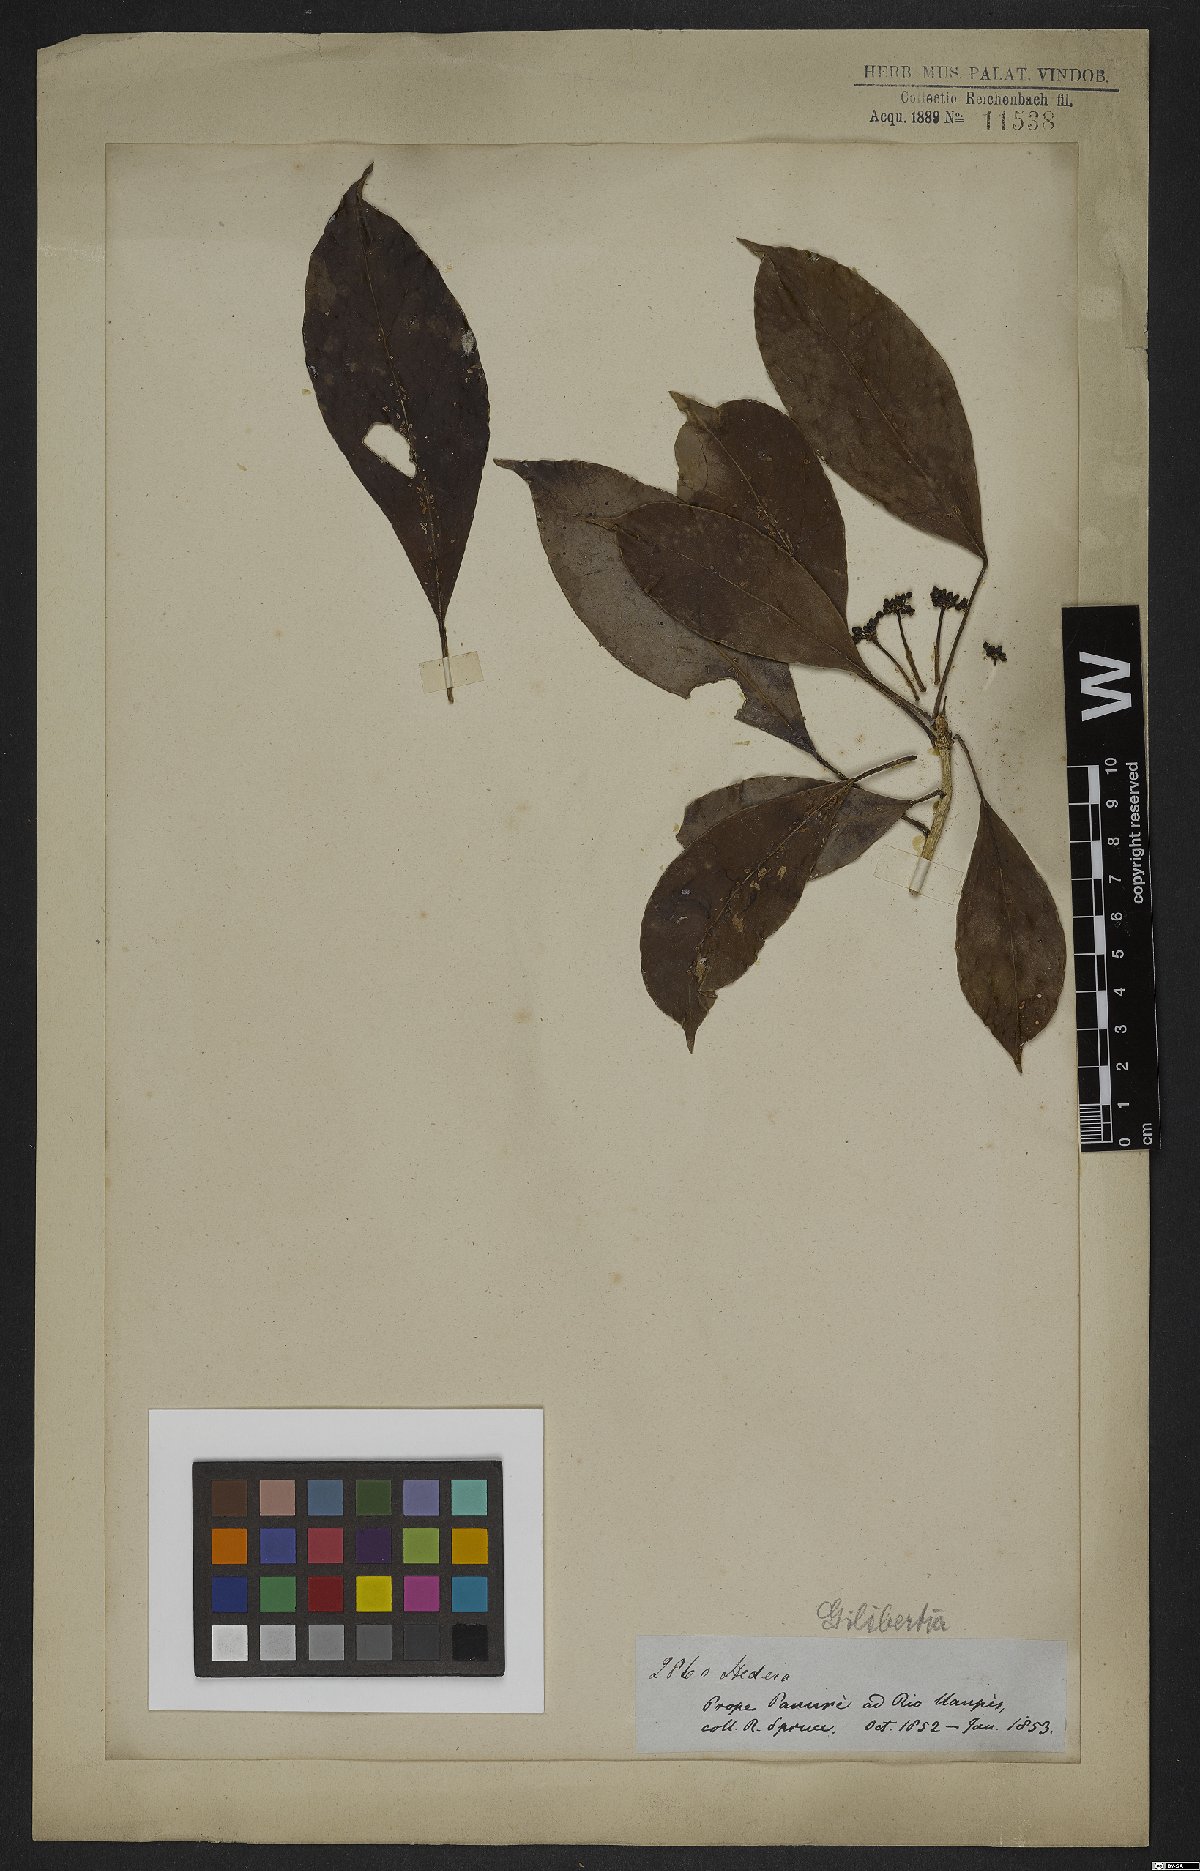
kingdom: Plantae
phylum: Tracheophyta
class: Magnoliopsida
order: Apiales
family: Araliaceae
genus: Dendropanax
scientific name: Dendropanax
